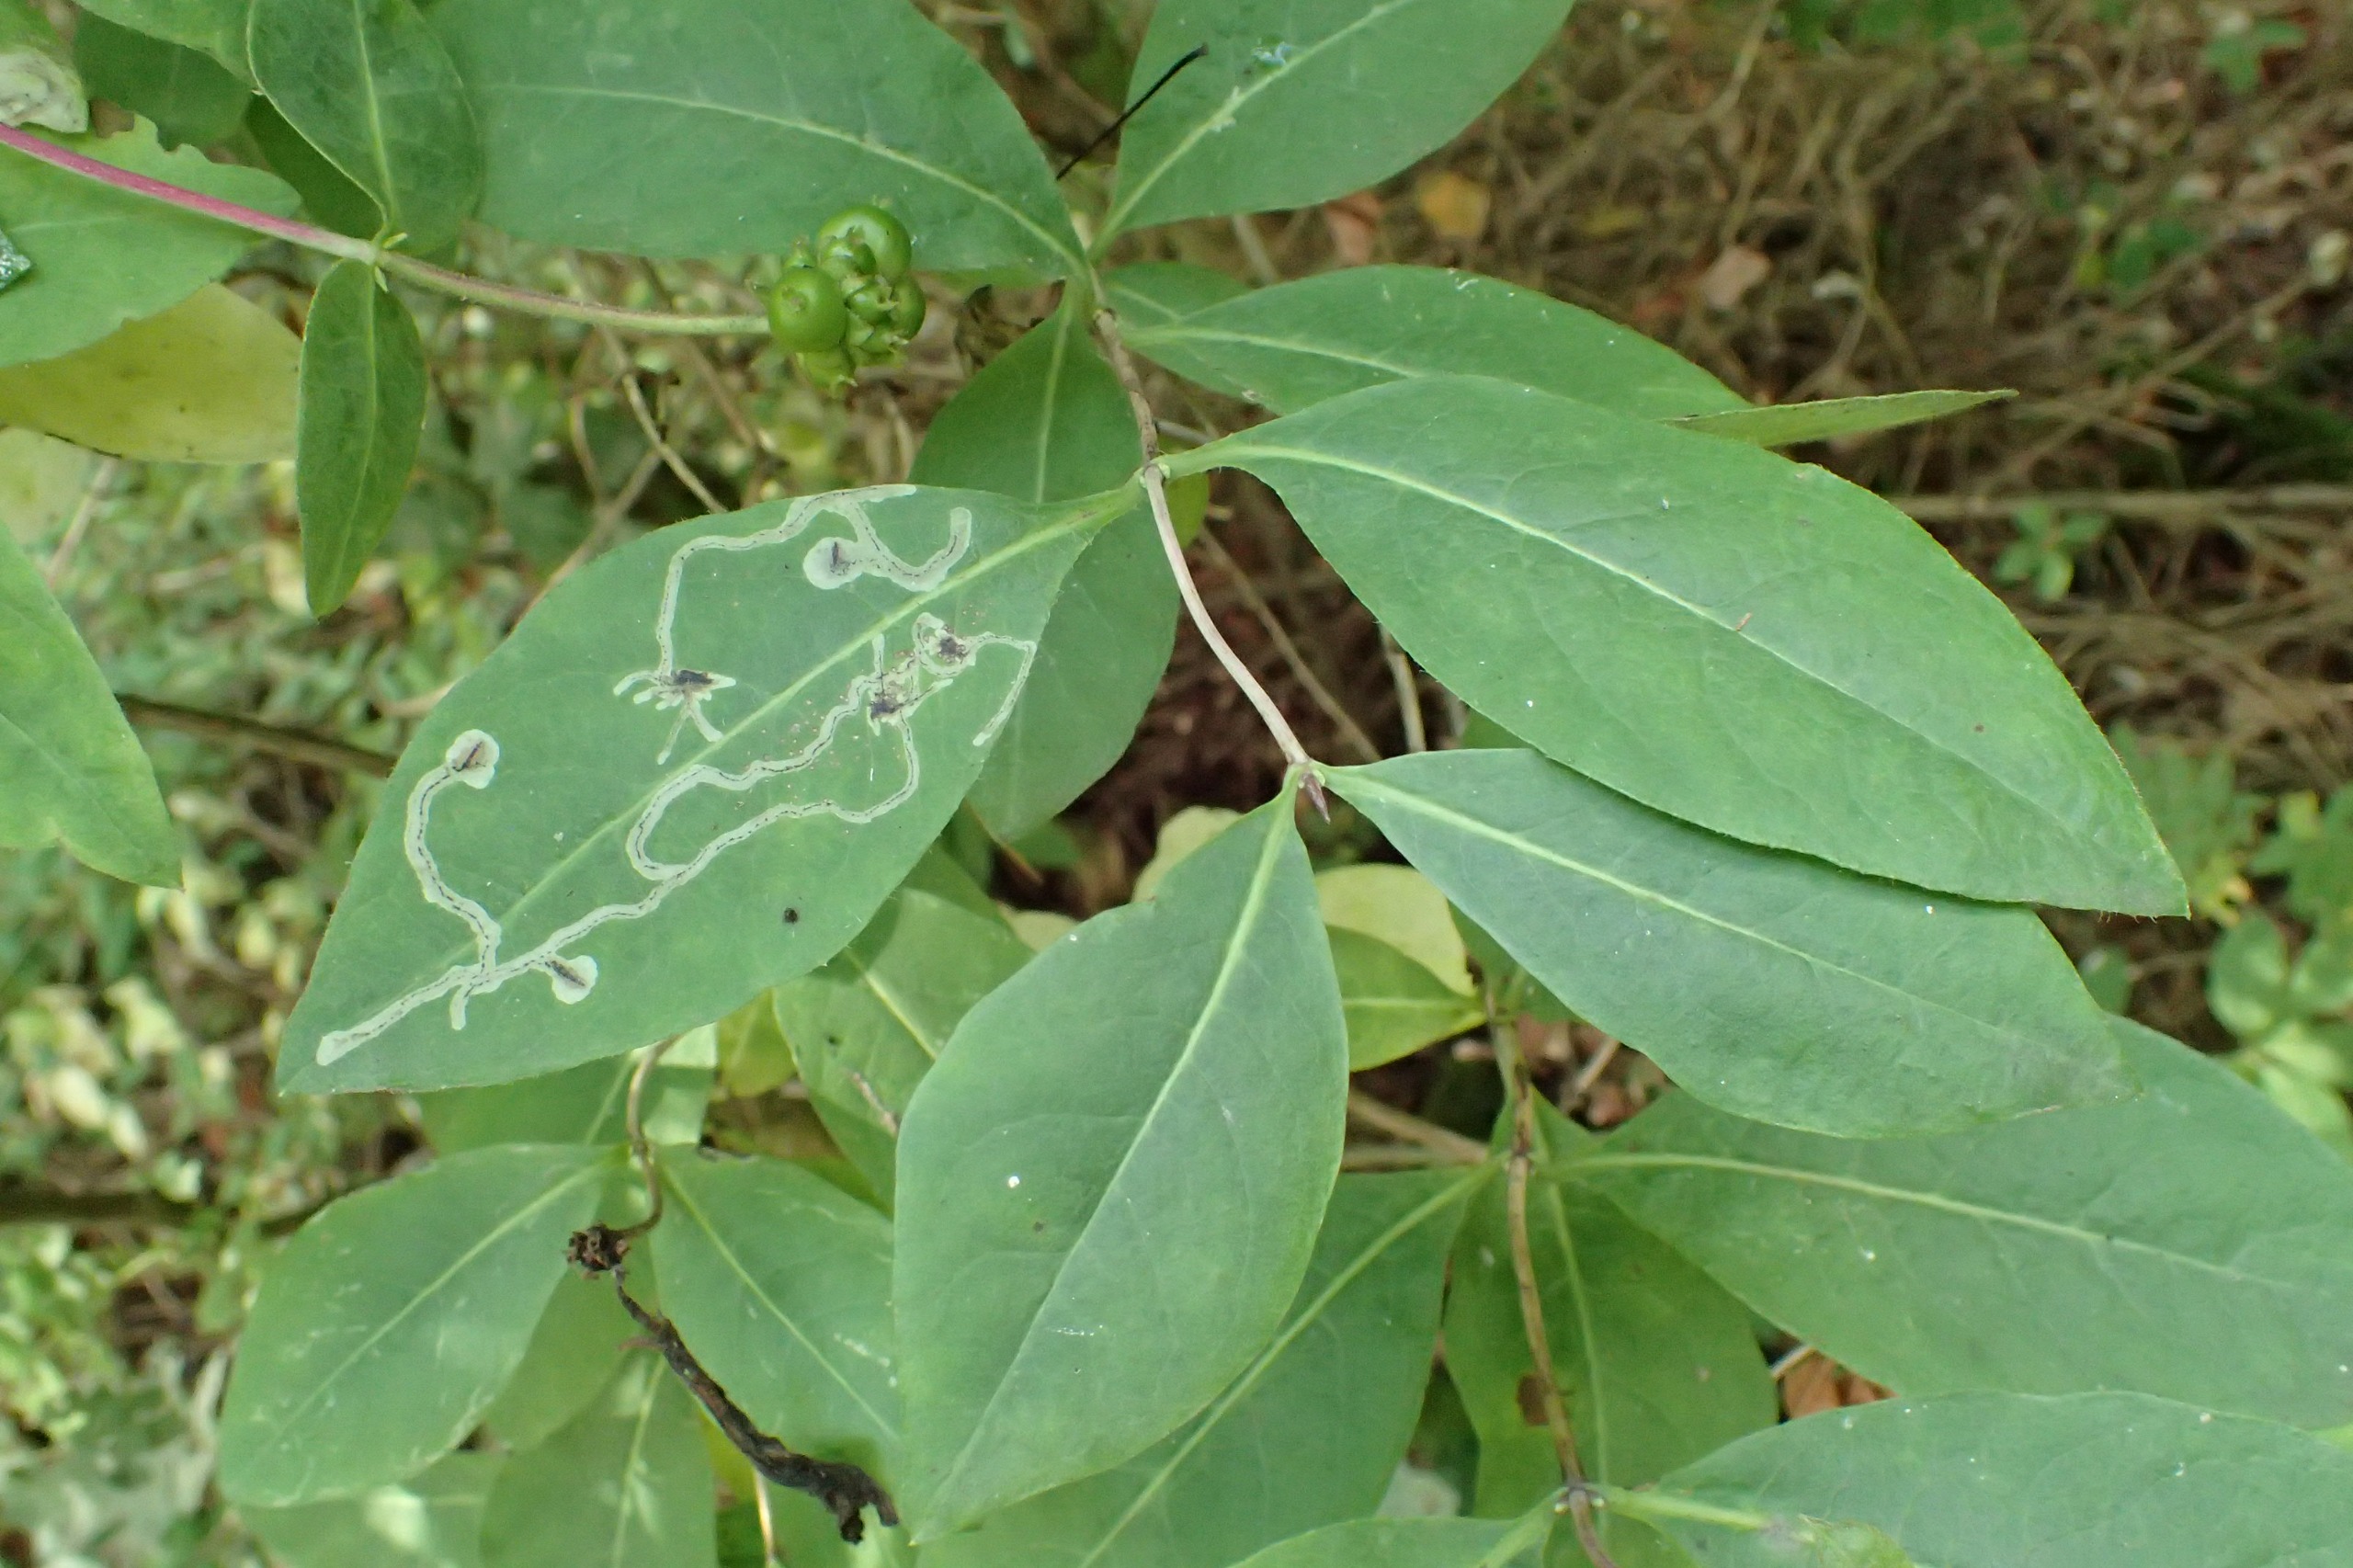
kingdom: Animalia
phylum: Arthropoda
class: Insecta
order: Diptera
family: Agromyzidae
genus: Chromatomyia
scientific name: Chromatomyia lonicerae
